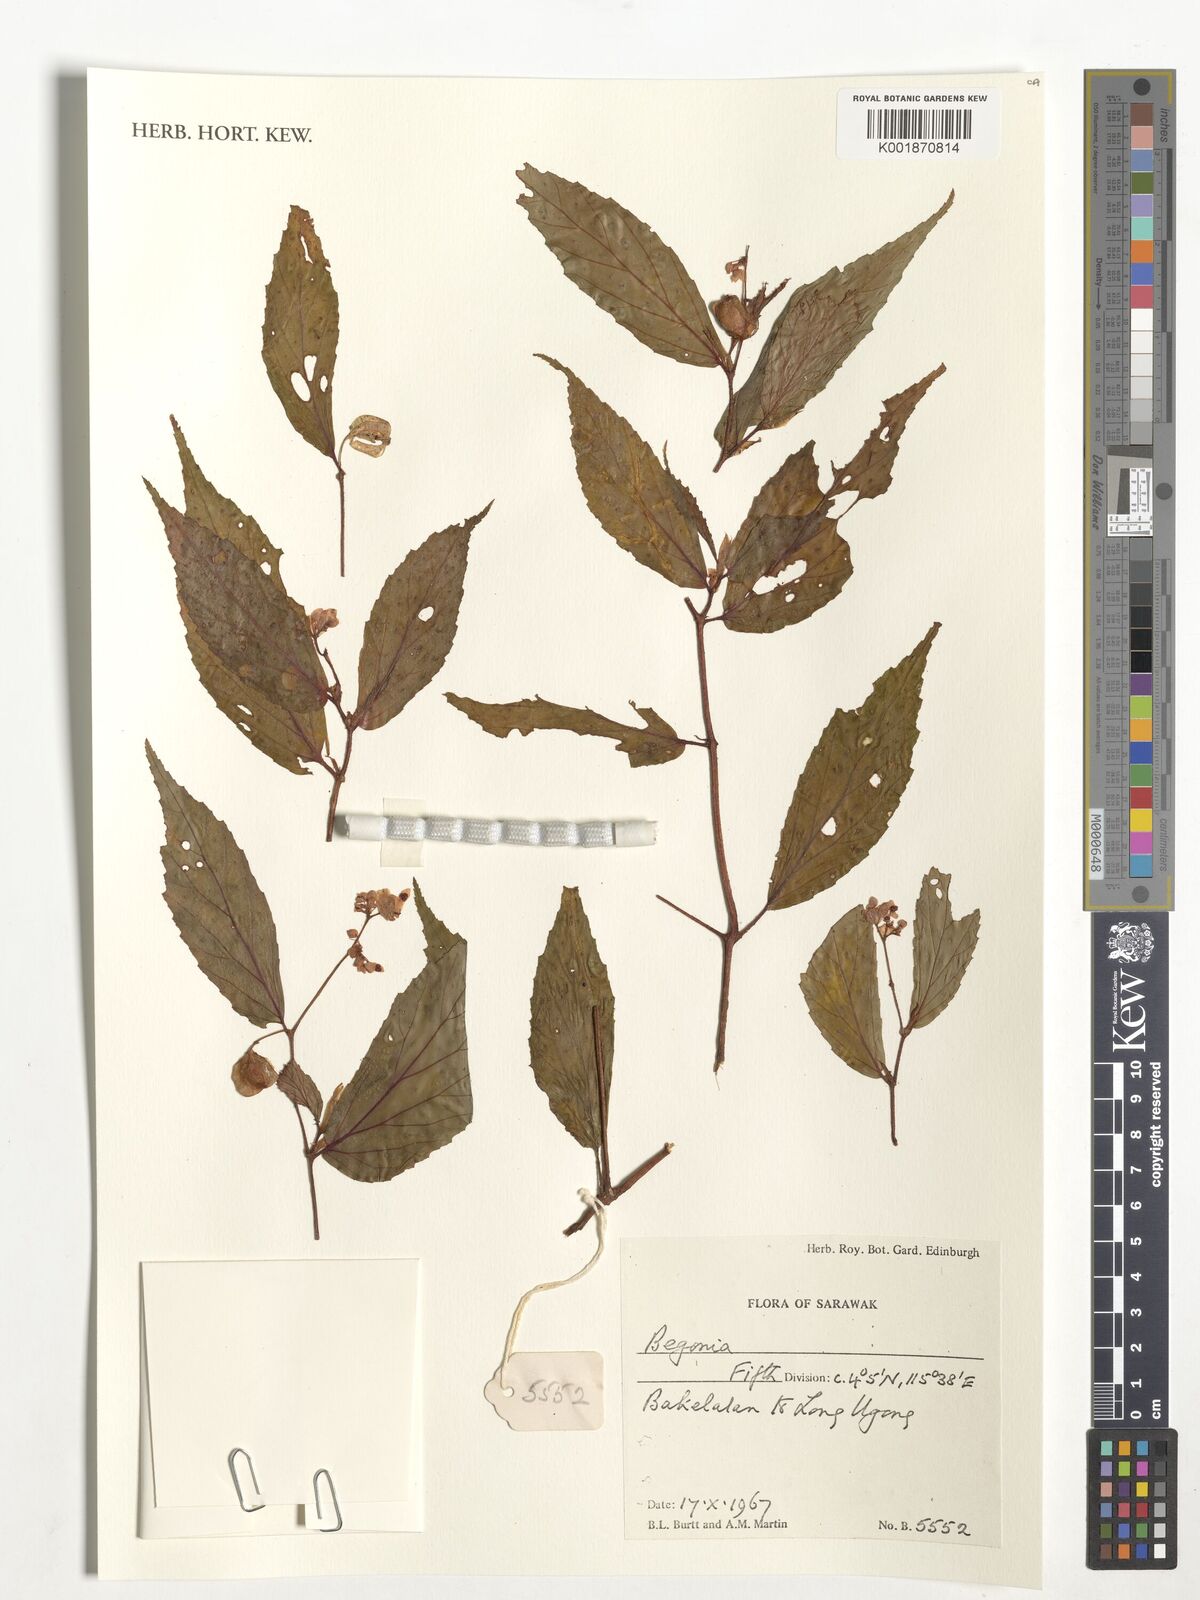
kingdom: Plantae
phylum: Tracheophyta
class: Magnoliopsida
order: Cucurbitales
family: Begoniaceae
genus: Begonia
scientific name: Begonia
